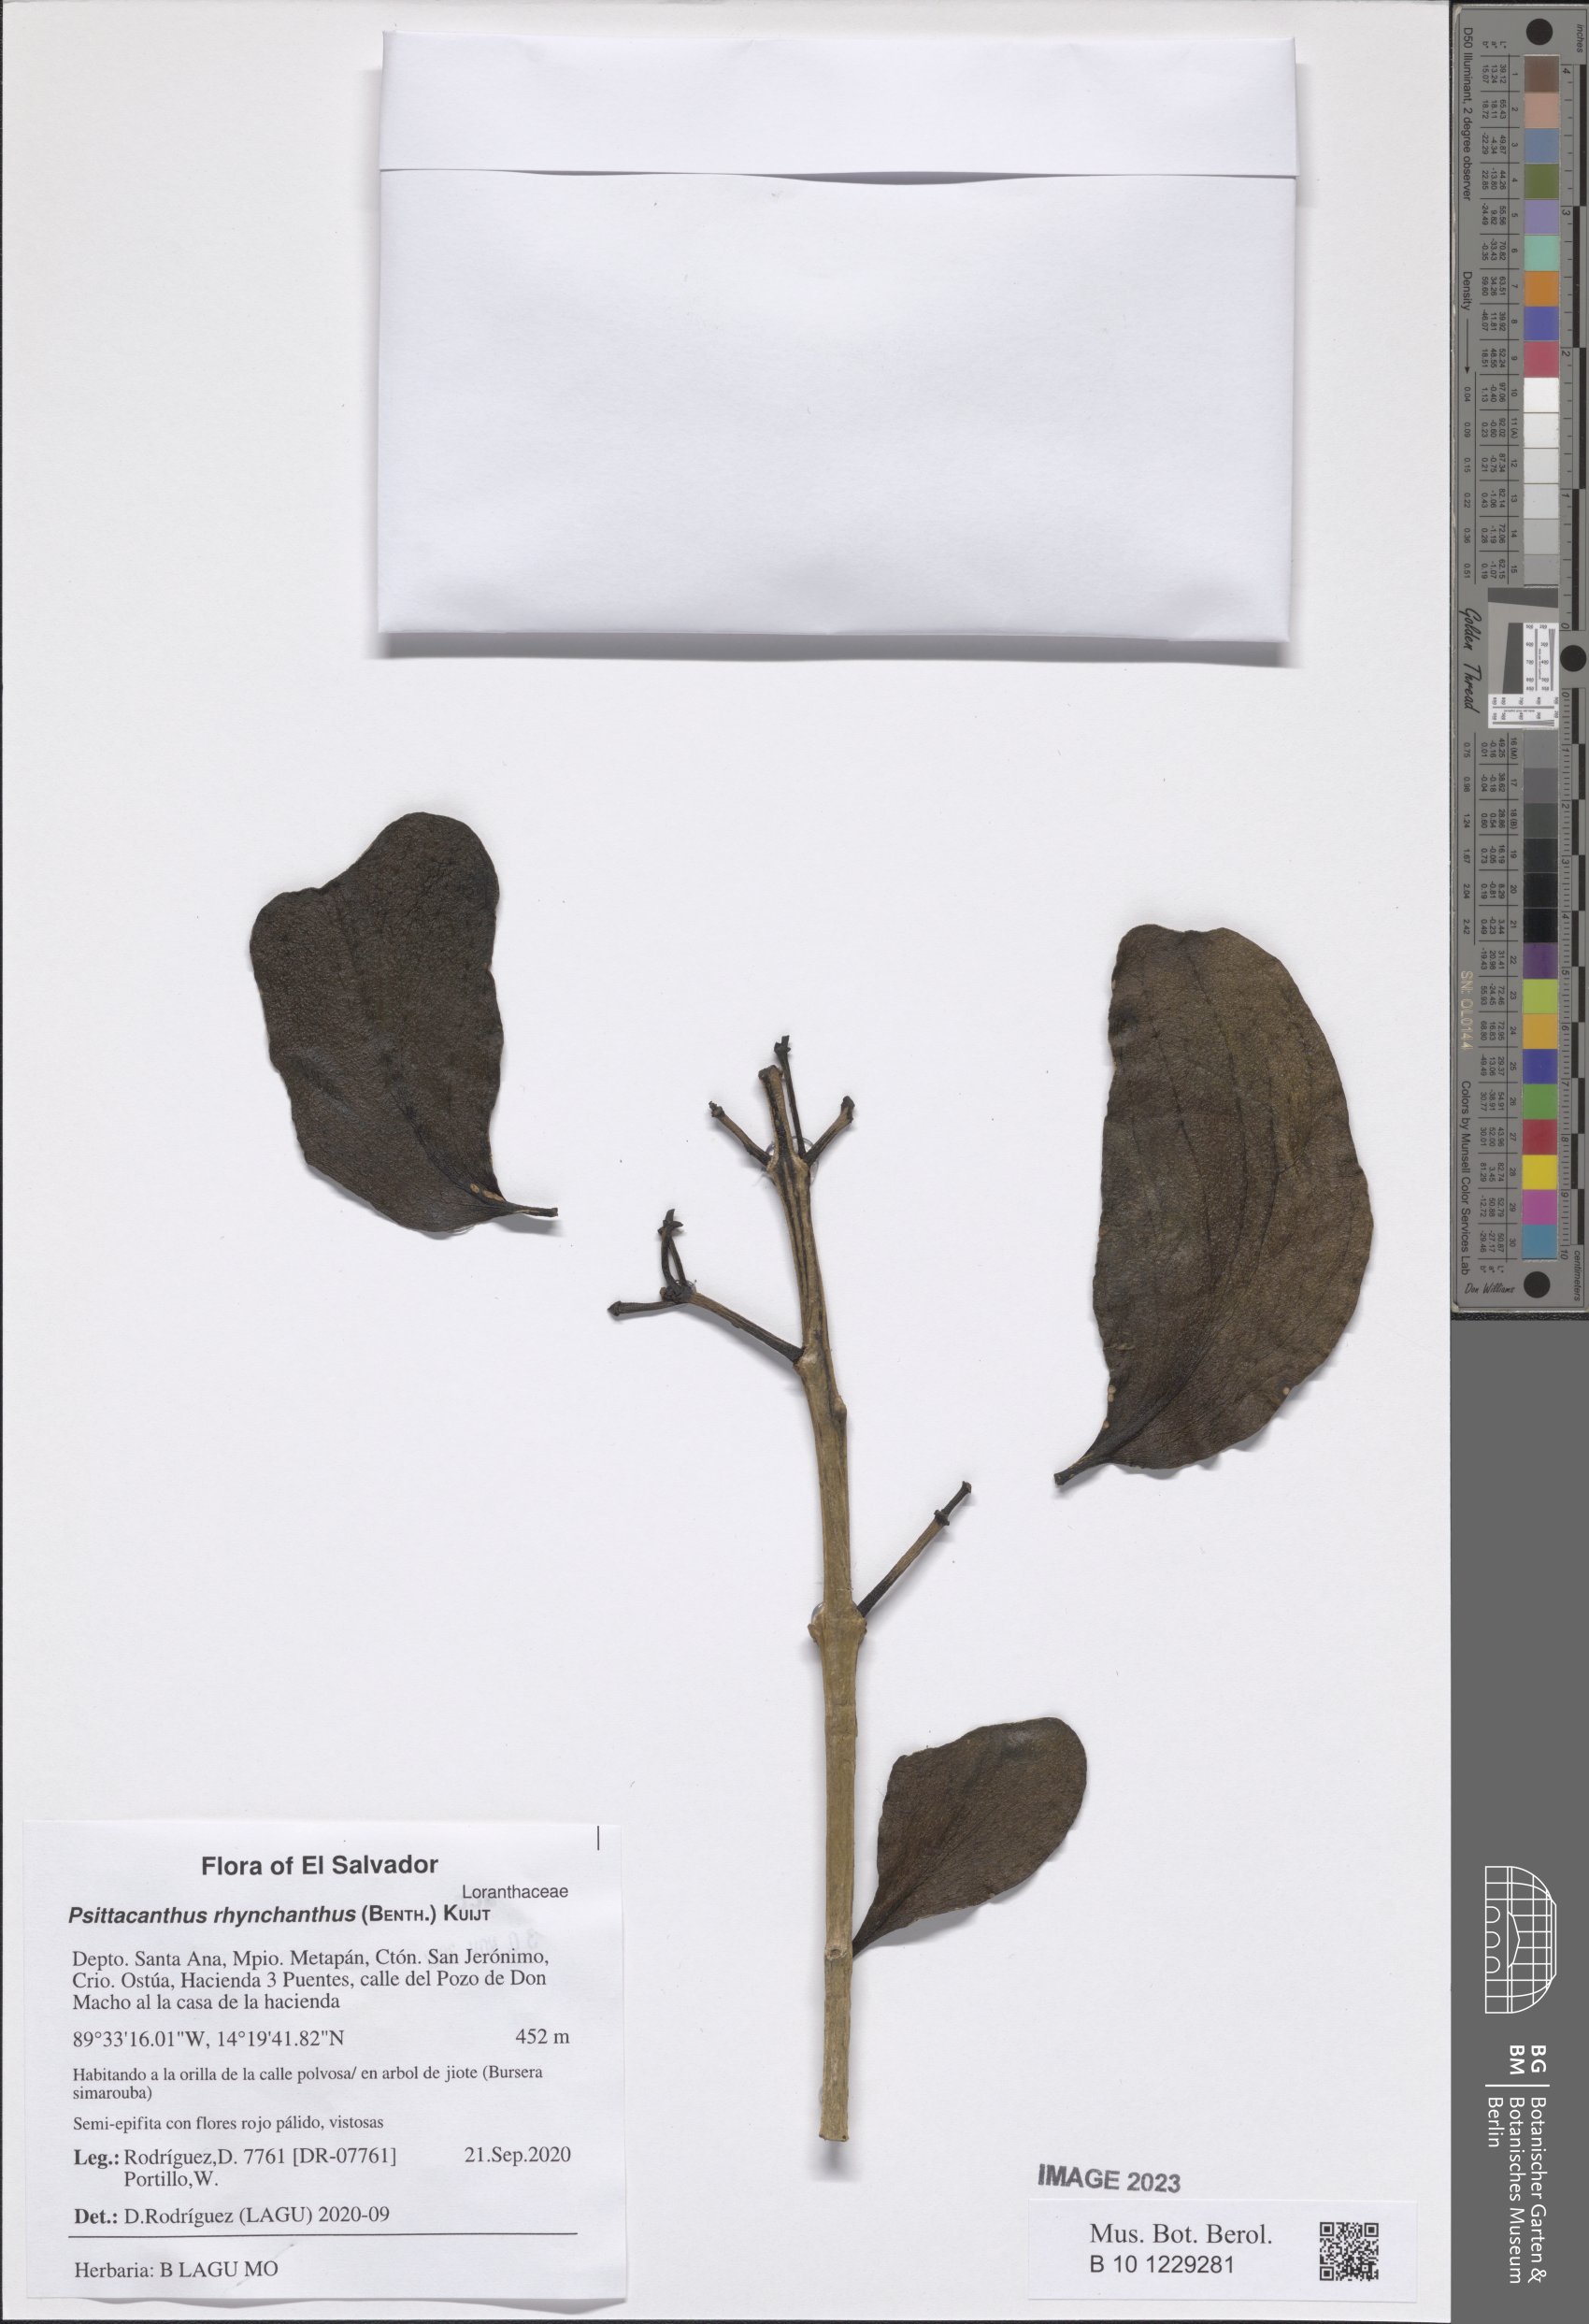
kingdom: Plantae
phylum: Tracheophyta
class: Magnoliopsida
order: Santalales
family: Loranthaceae
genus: Psittacanthus
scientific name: Psittacanthus rhynchanthus
